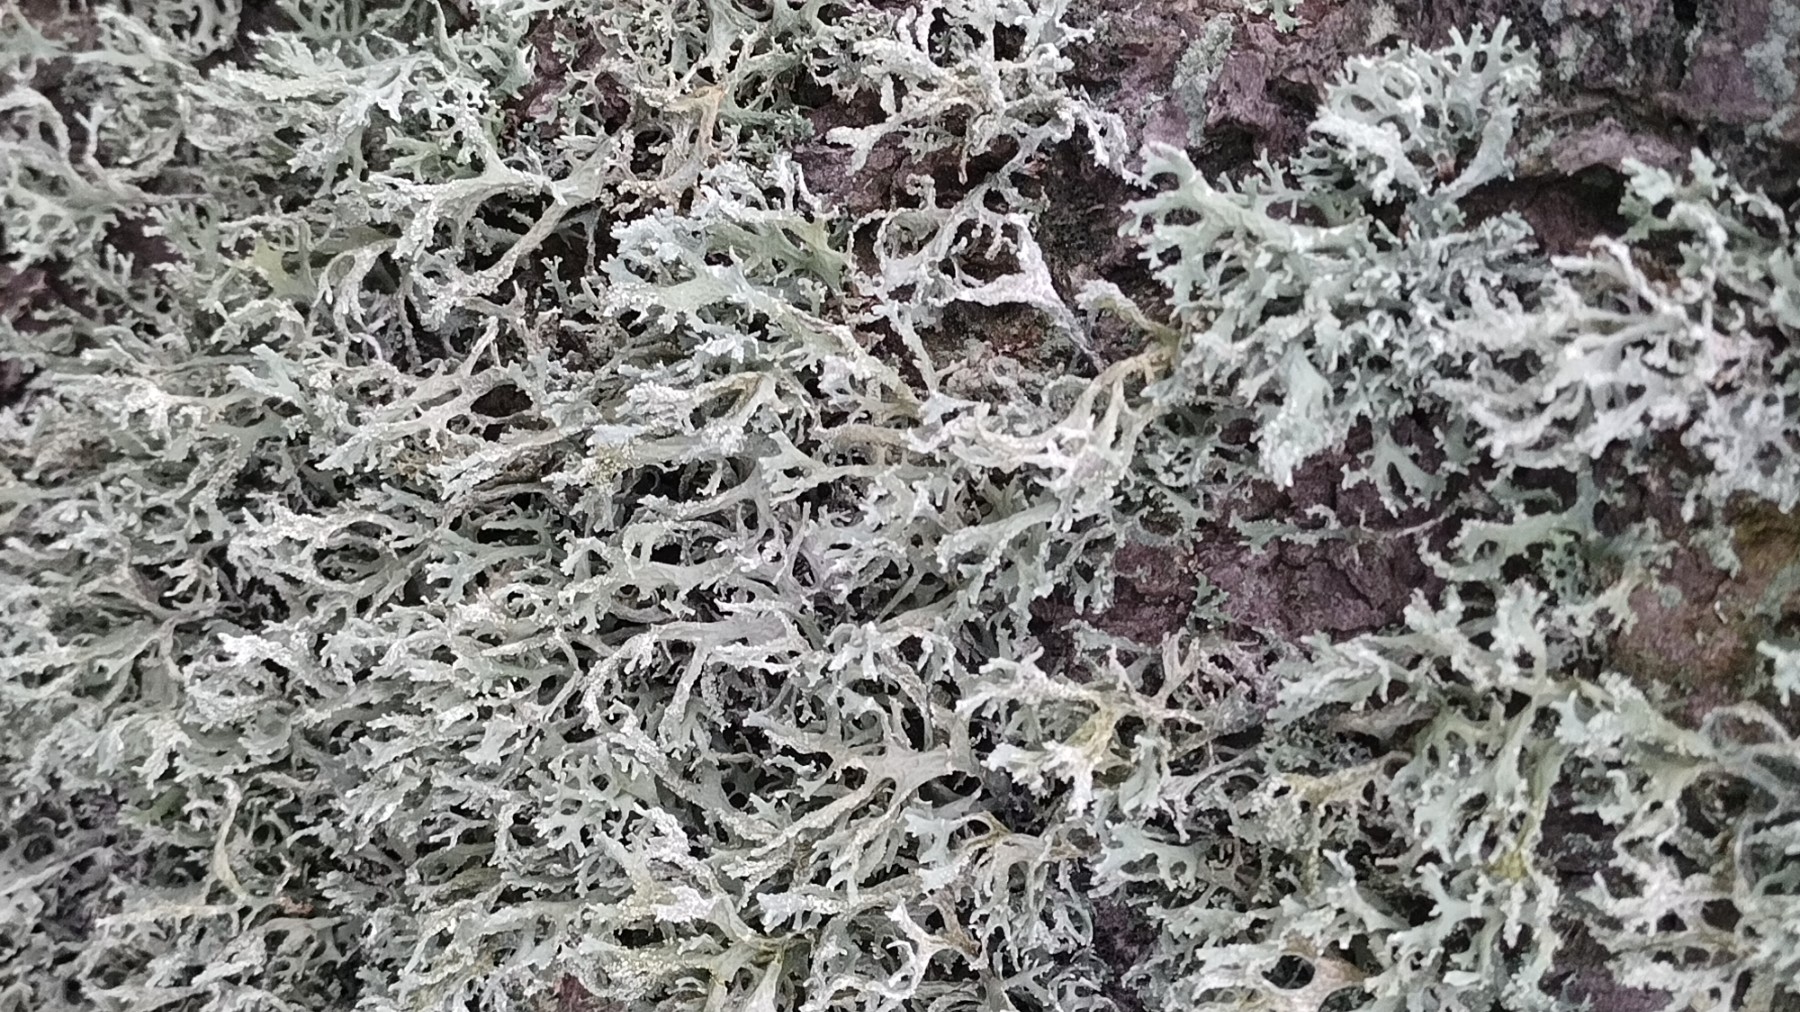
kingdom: Fungi
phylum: Ascomycota
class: Lecanoromycetes
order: Lecanorales
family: Parmeliaceae
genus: Evernia
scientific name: Evernia prunastri
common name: almindelig slåenlav
